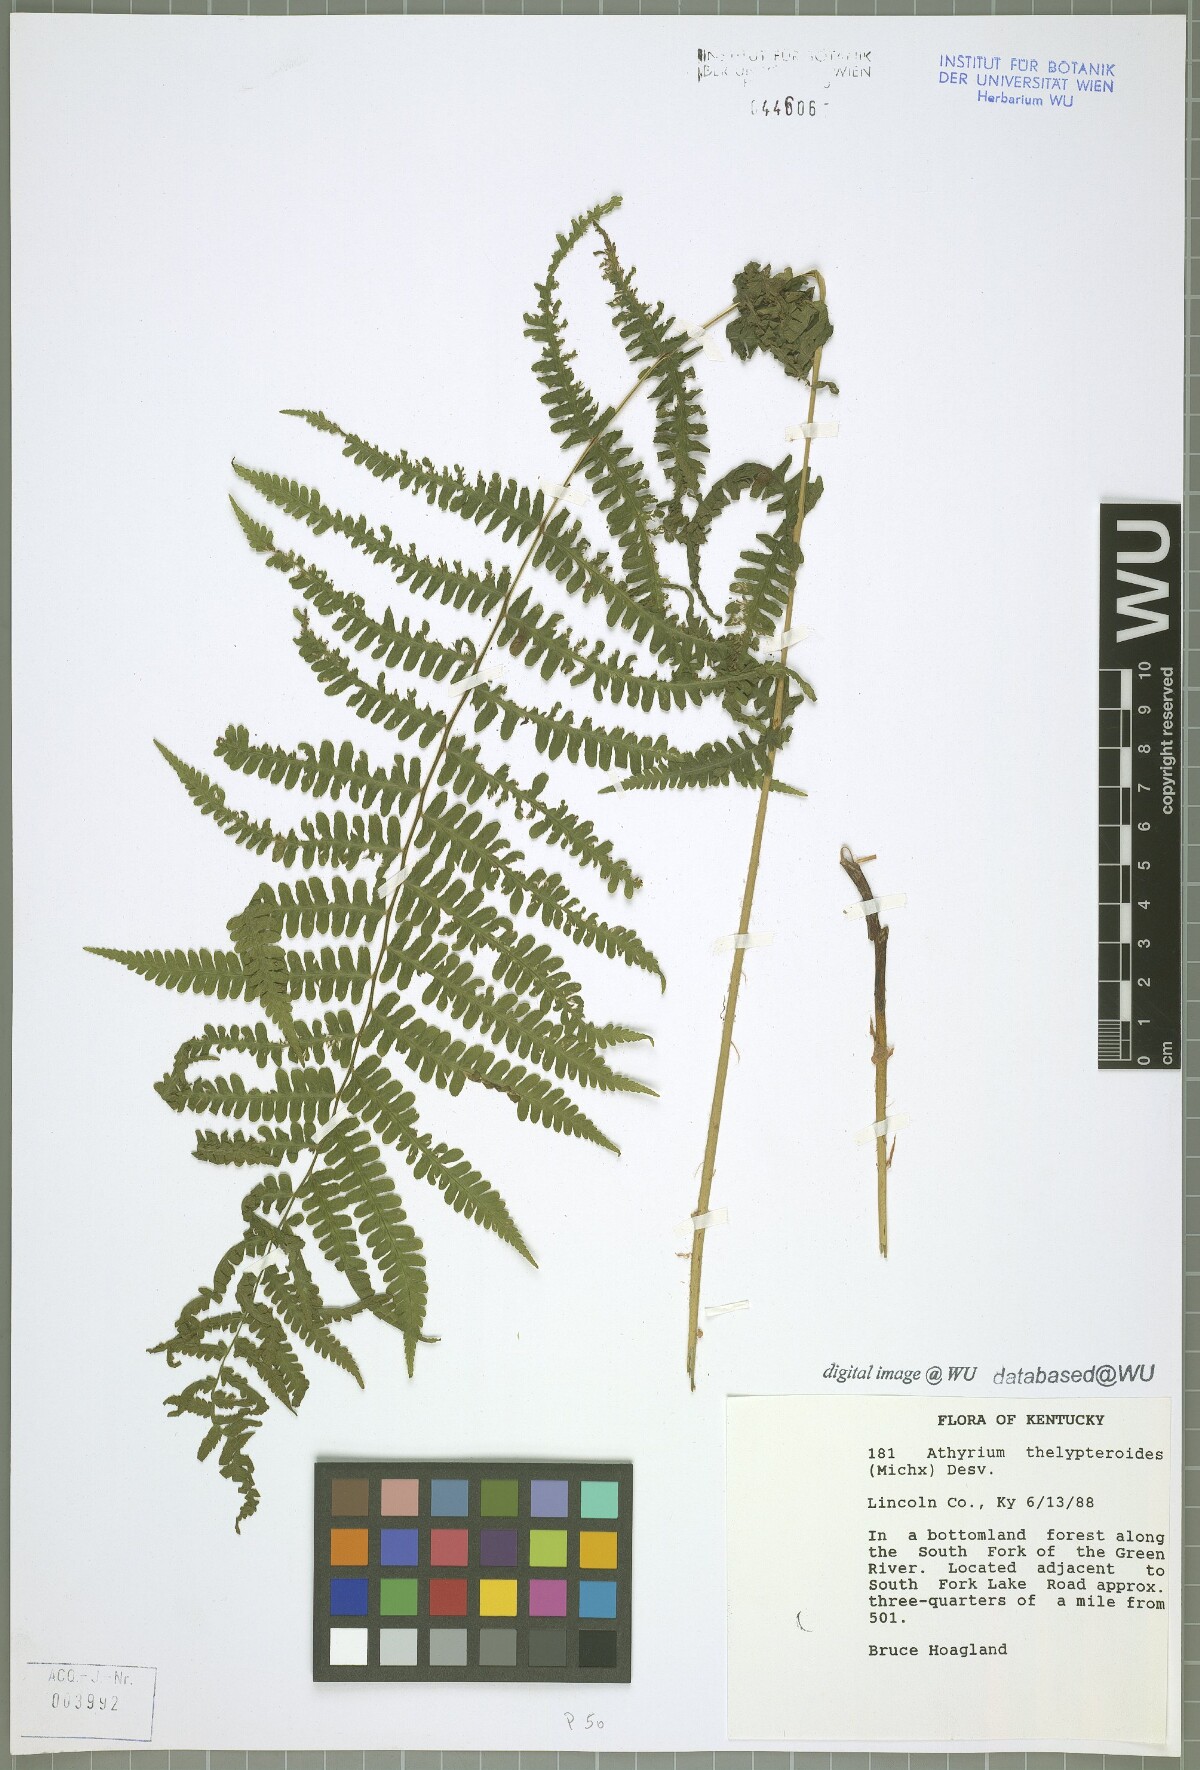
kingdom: Plantae
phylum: Tracheophyta
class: Polypodiopsida
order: Polypodiales
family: Athyriaceae
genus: Deparia
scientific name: Deparia acrostichoides
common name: Silver false spleenwort
